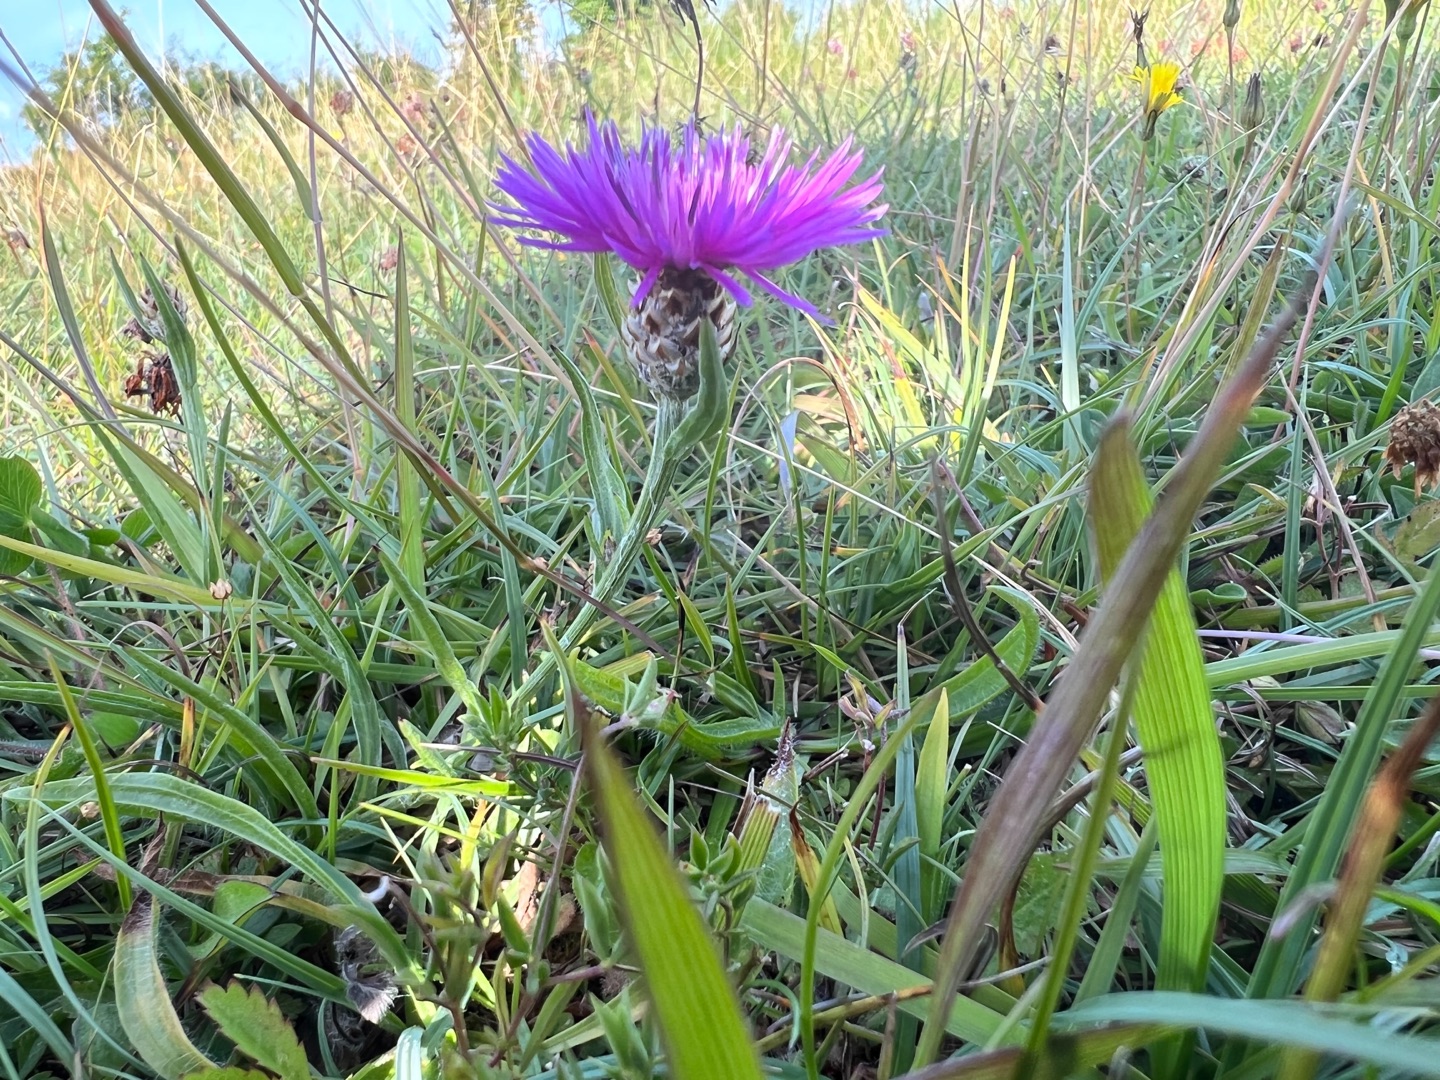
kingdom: Plantae
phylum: Tracheophyta
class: Magnoliopsida
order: Asterales
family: Asteraceae
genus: Centaurea
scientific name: Centaurea jacea
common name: Almindelig knopurt
